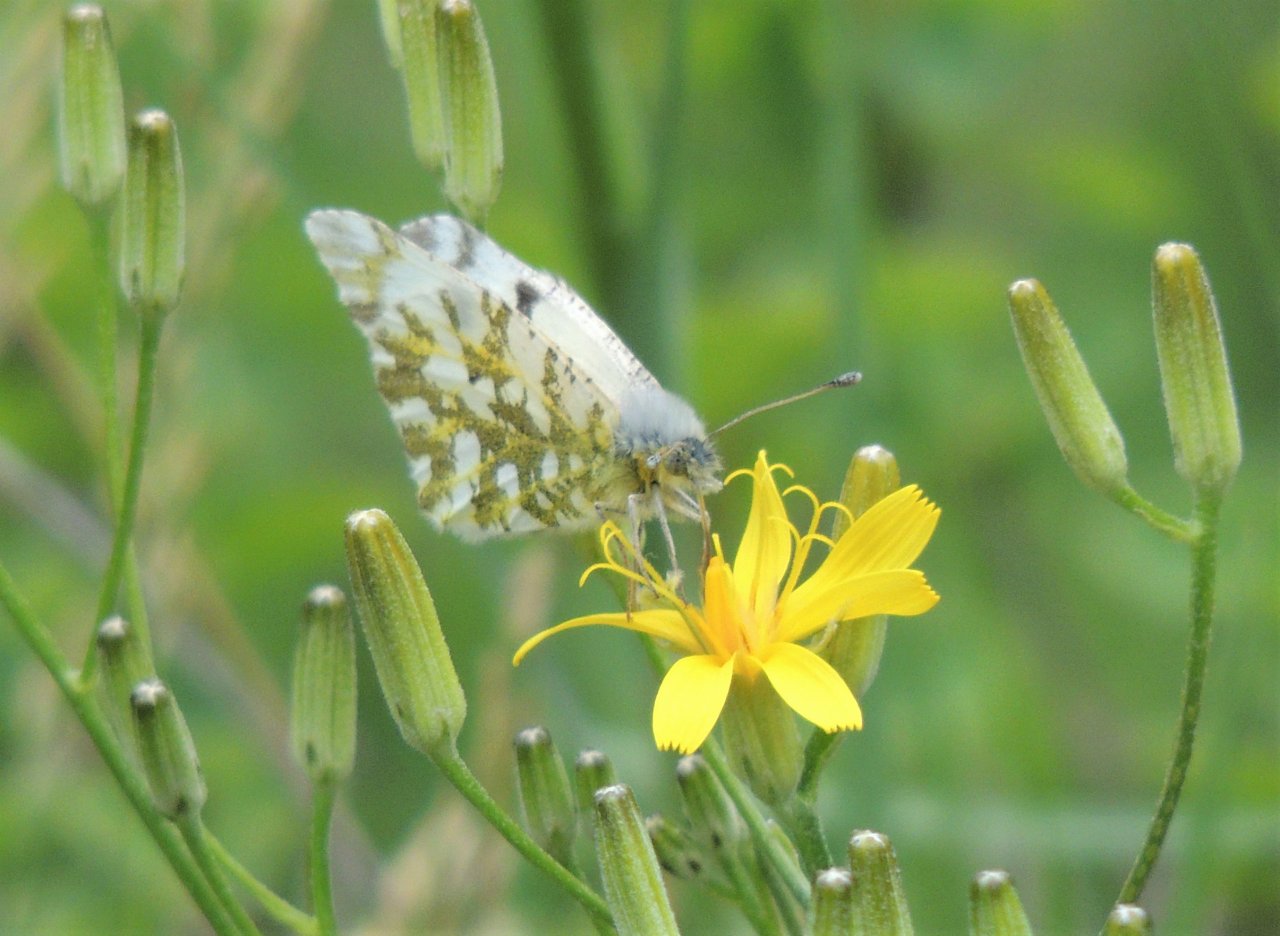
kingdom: Animalia
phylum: Arthropoda
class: Insecta
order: Lepidoptera
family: Pieridae
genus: Euchloe
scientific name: Euchloe lotta
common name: Desert Marble
